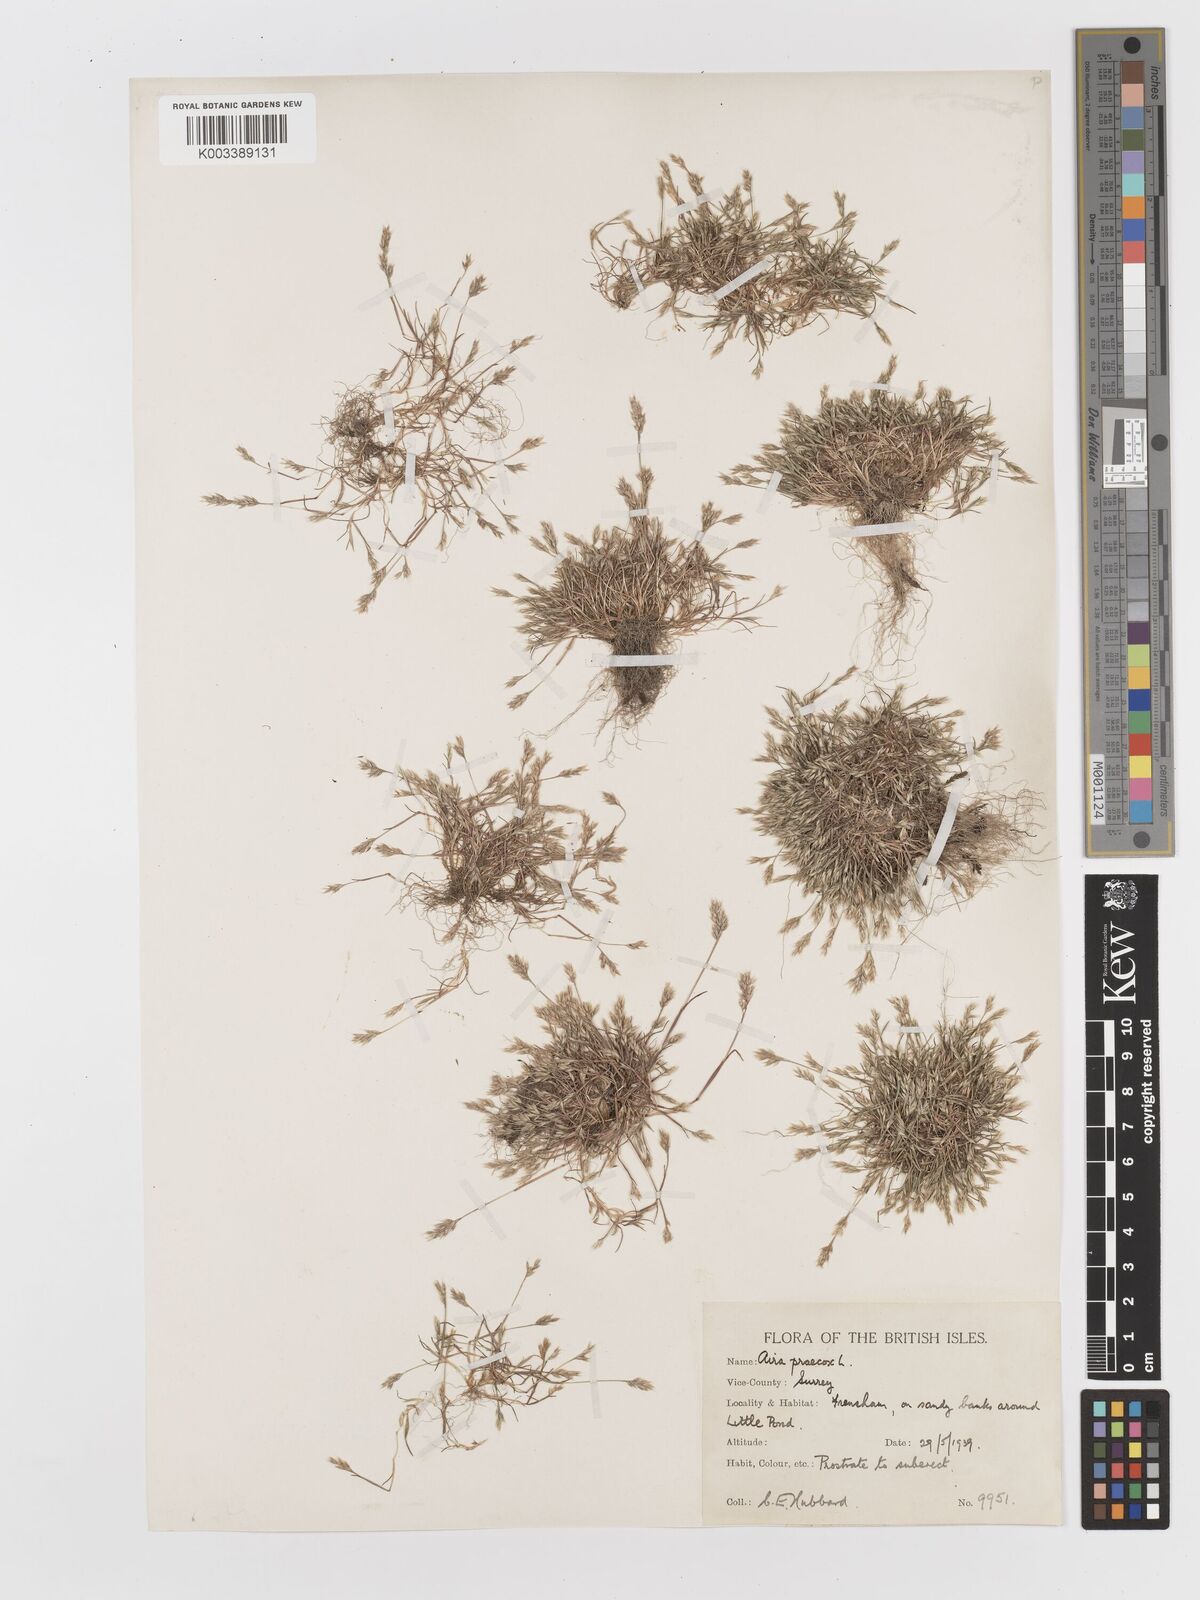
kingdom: Plantae
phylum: Tracheophyta
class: Liliopsida
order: Poales
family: Poaceae
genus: Aira
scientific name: Aira praecox
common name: Early hair-grass
